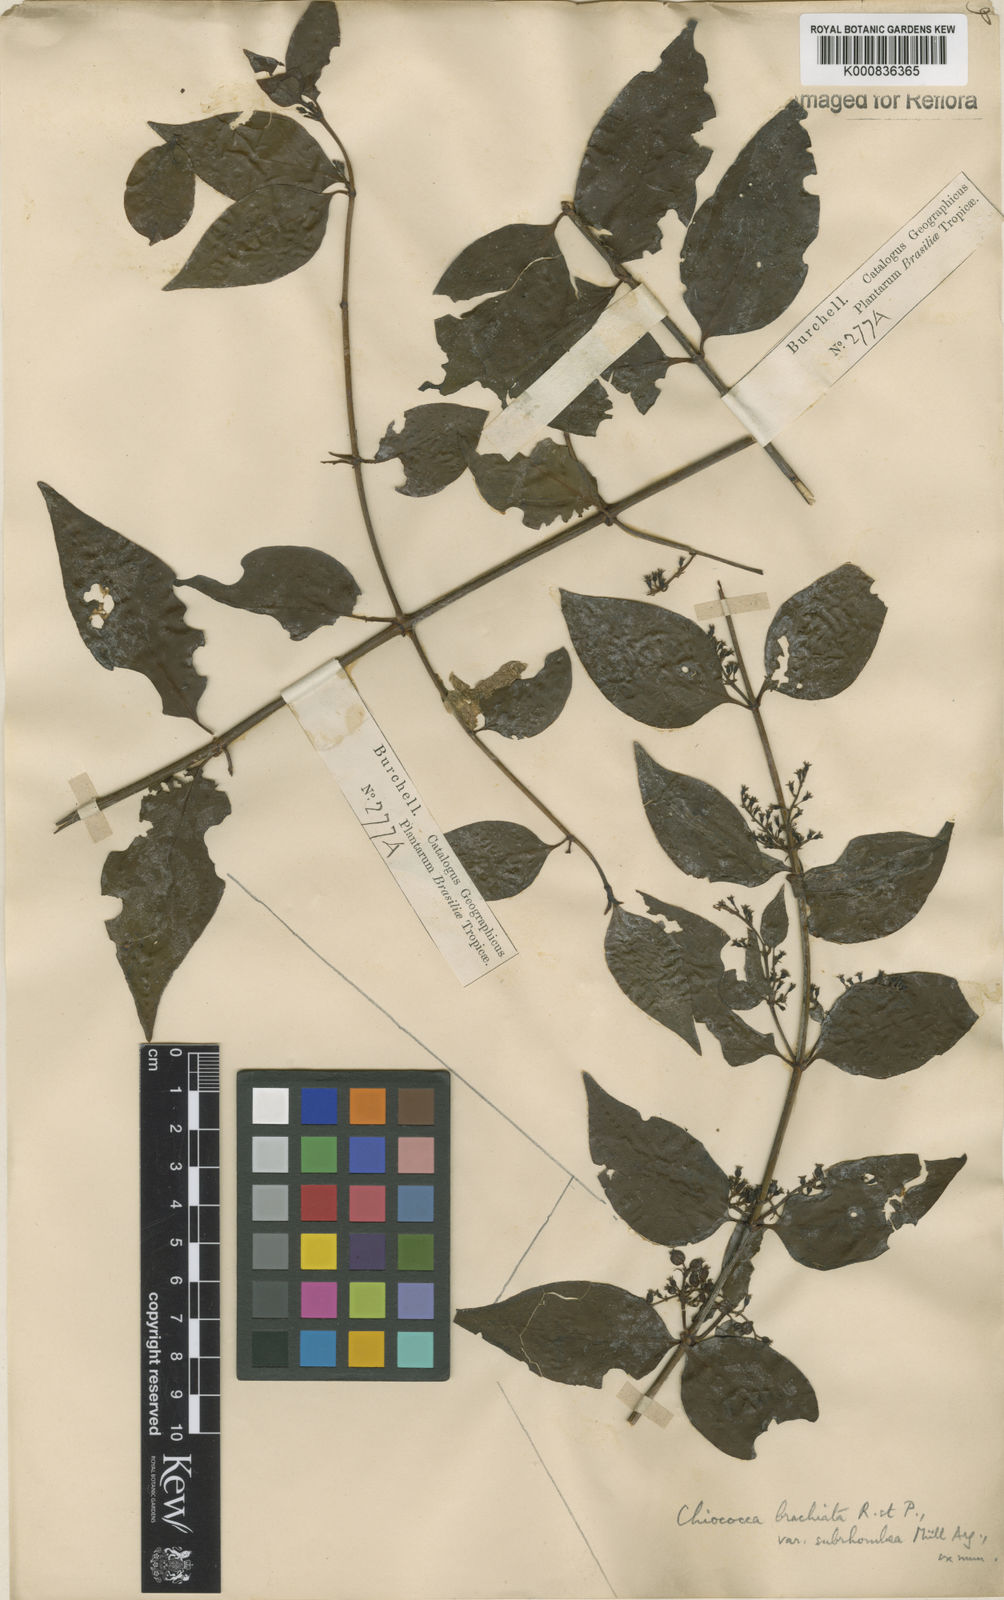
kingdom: Plantae
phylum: Tracheophyta
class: Magnoliopsida
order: Gentianales
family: Rubiaceae
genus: Chiococca
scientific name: Chiococca alba
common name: Snowberry
